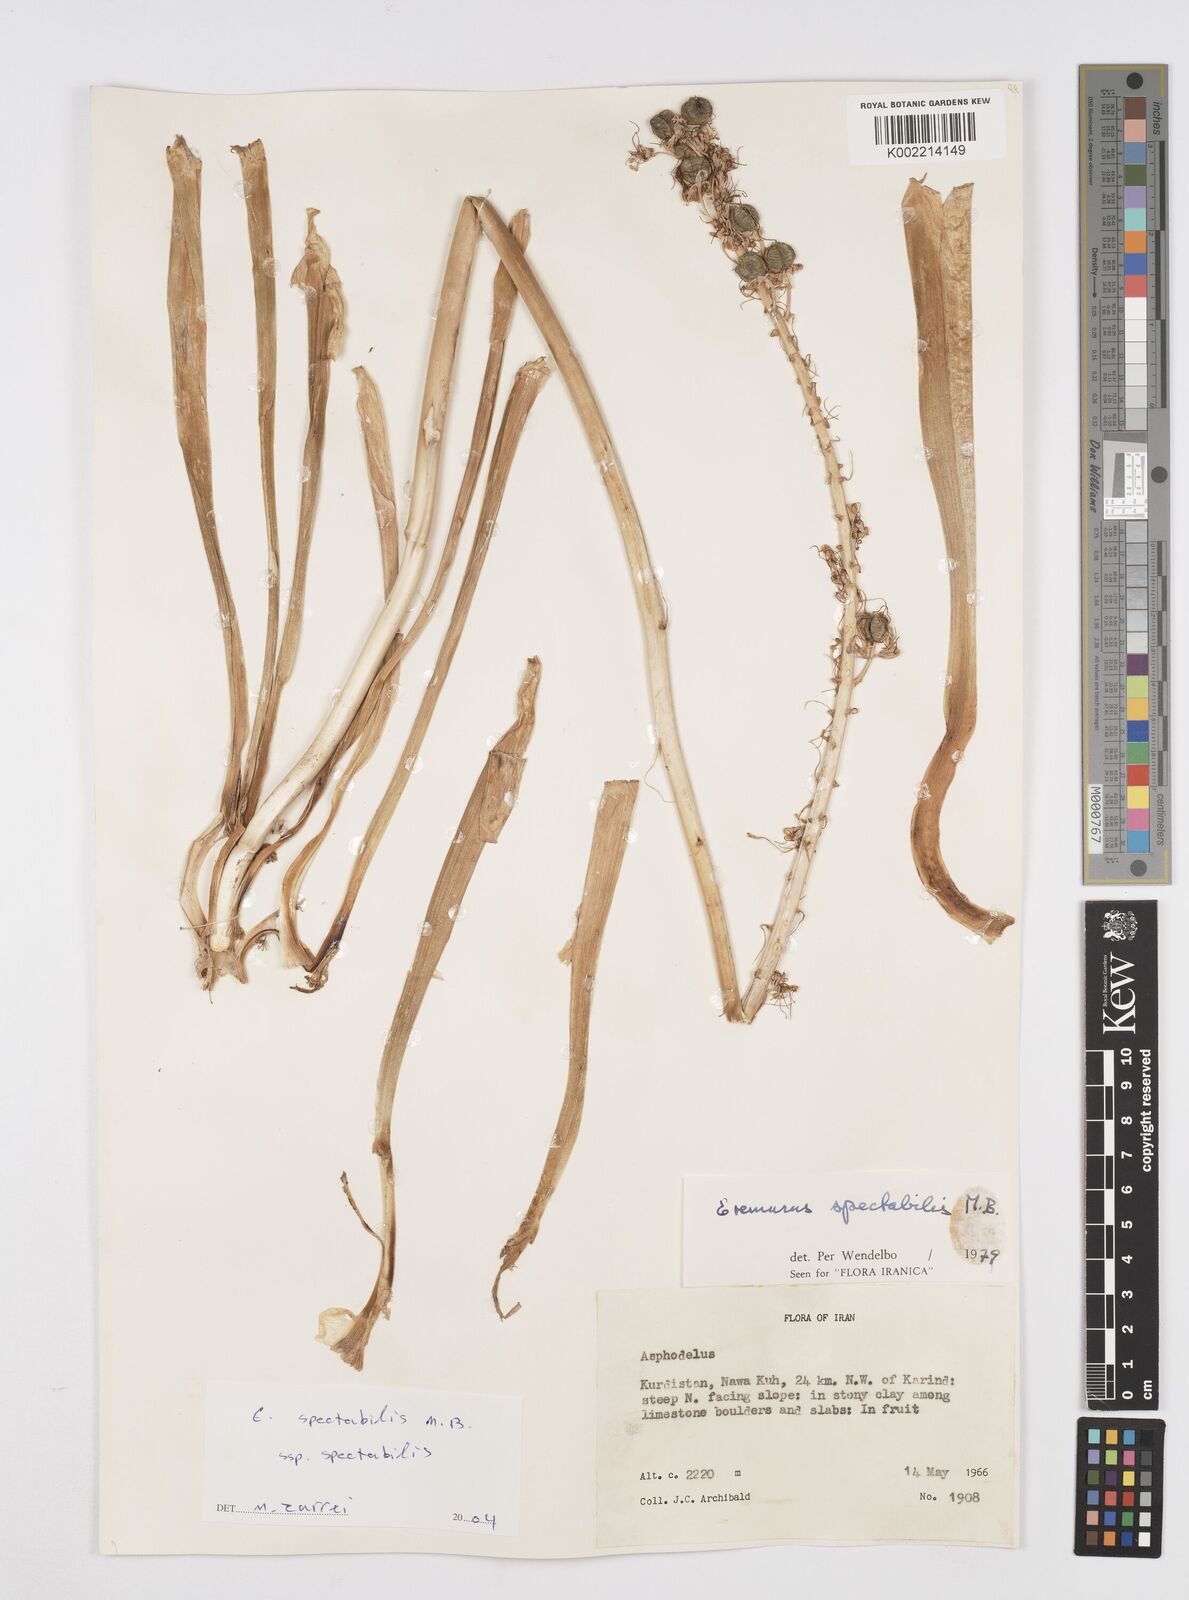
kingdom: Plantae
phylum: Tracheophyta
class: Liliopsida
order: Asparagales
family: Asphodelaceae
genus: Eremurus
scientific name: Eremurus spectabilis
